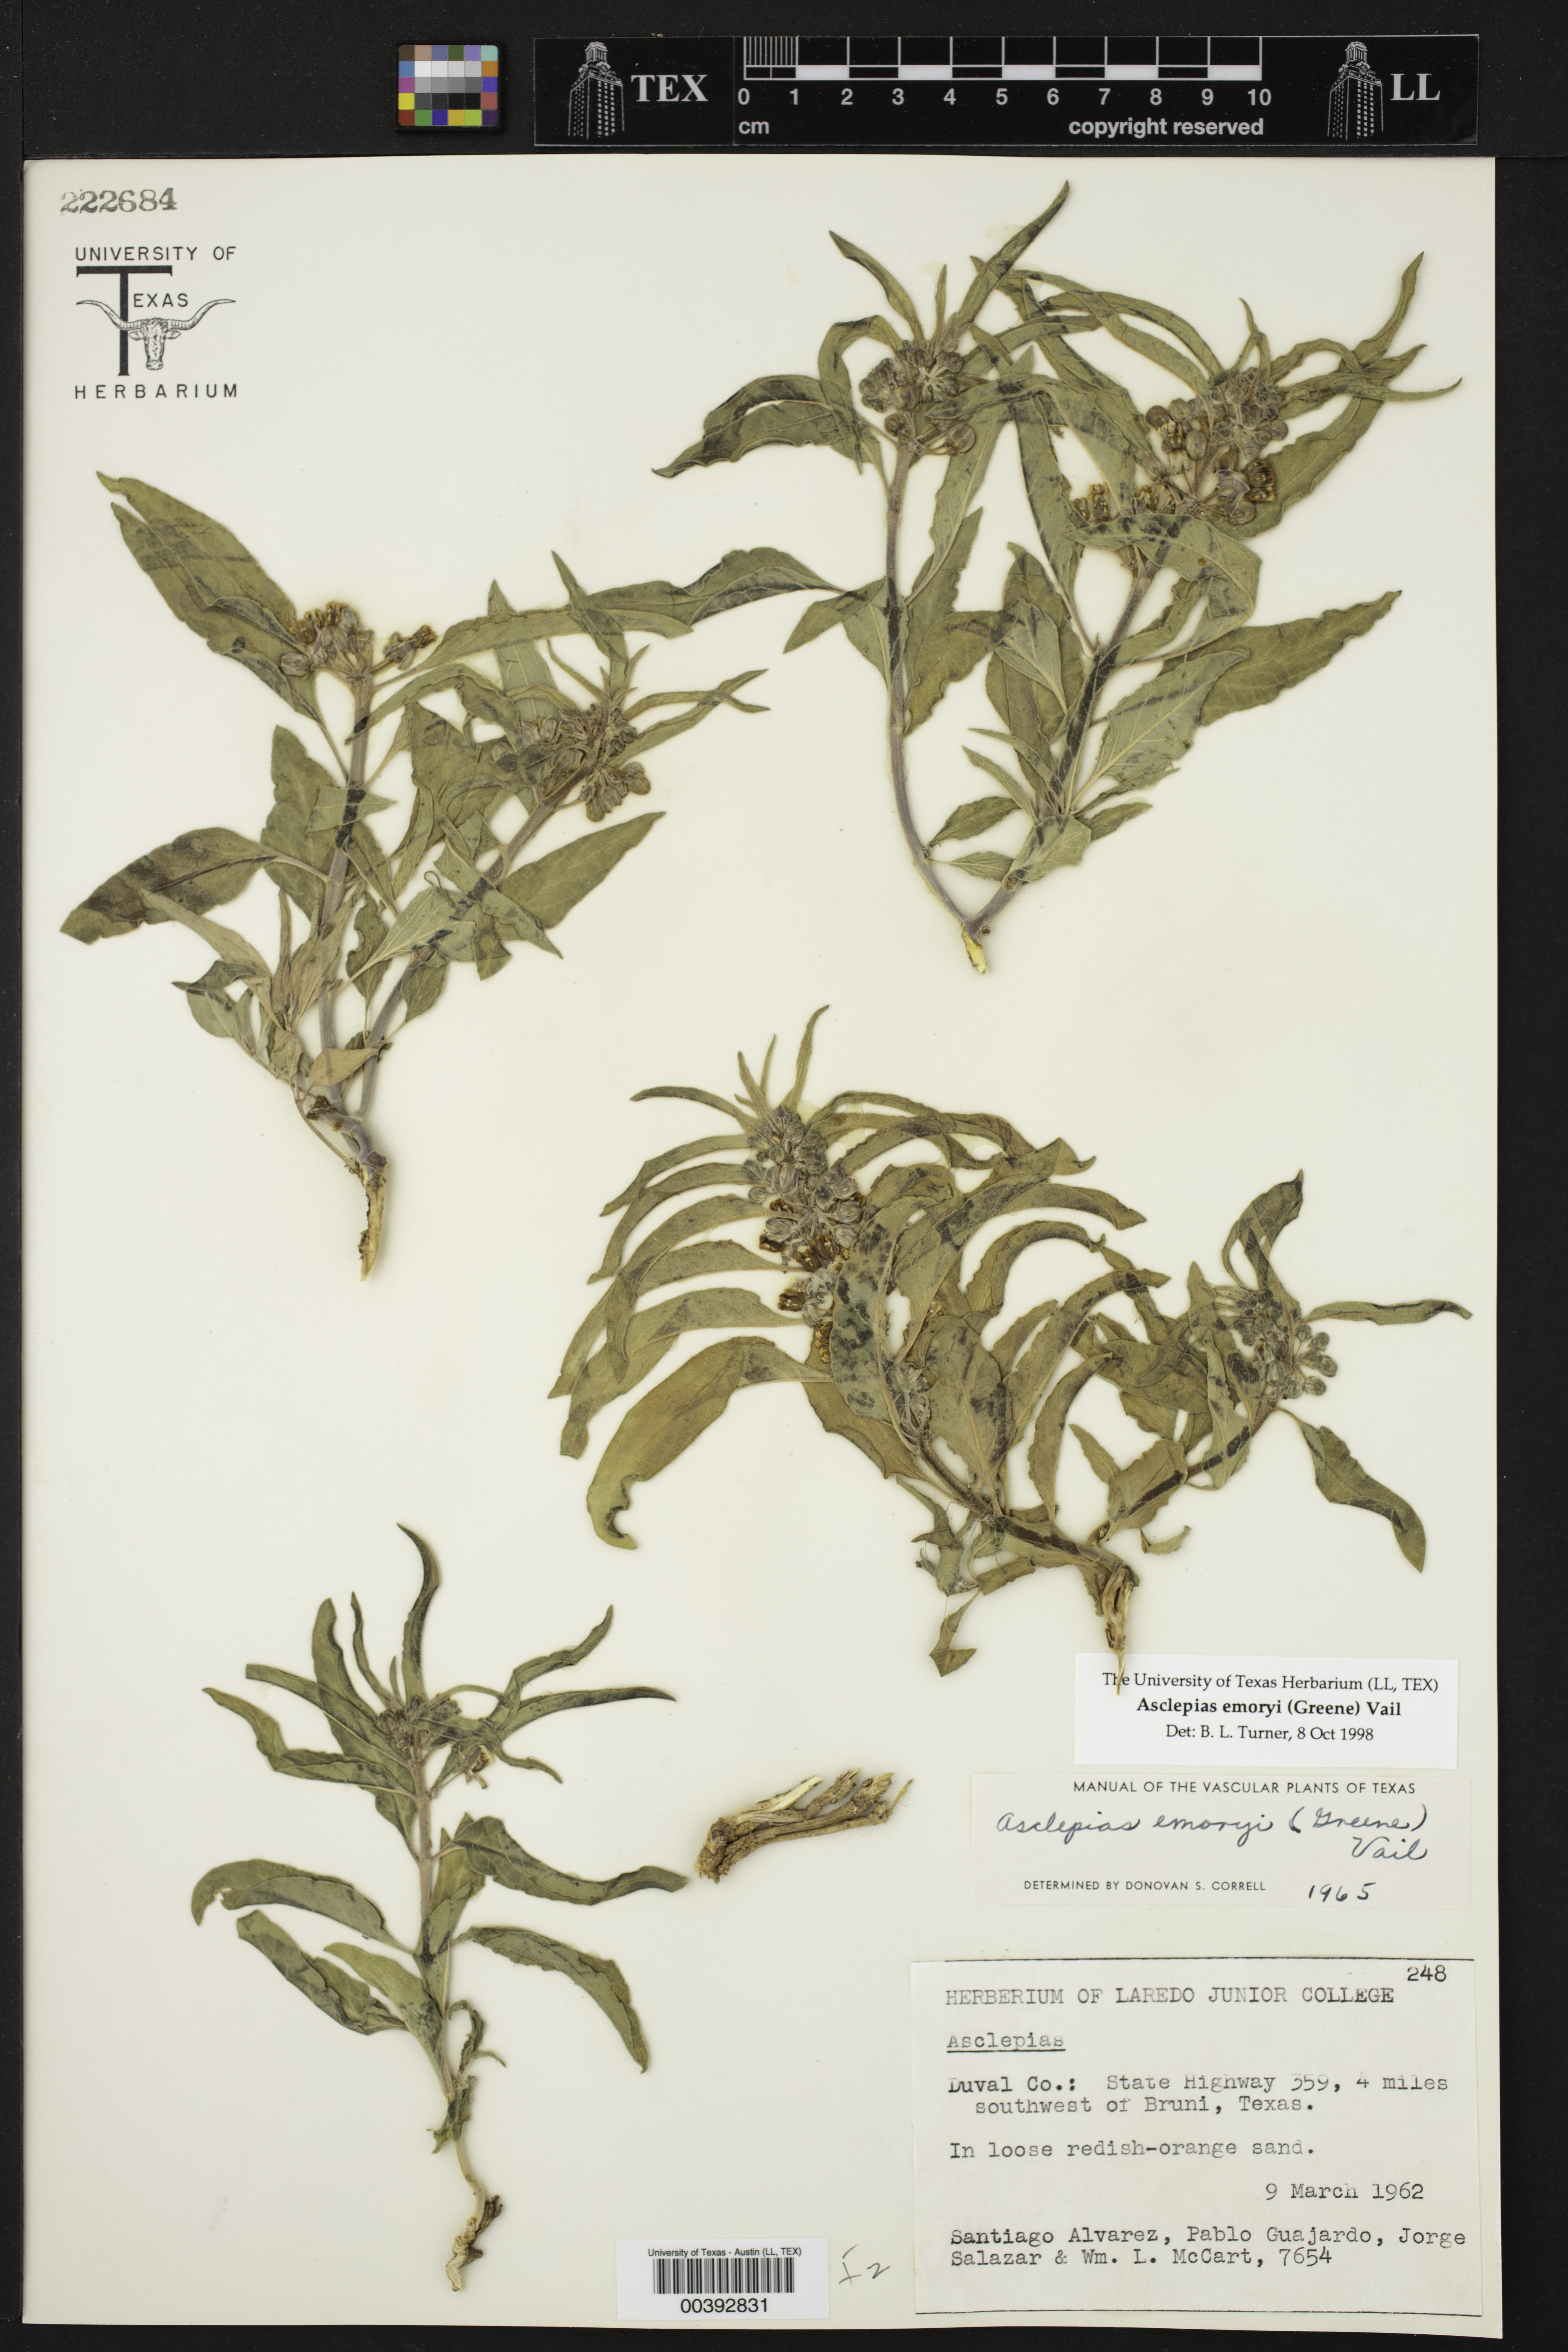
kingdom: Plantae
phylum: Tracheophyta
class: Magnoliopsida
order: Gentianales
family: Apocynaceae
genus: Asclepias
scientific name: Asclepias emoryi
